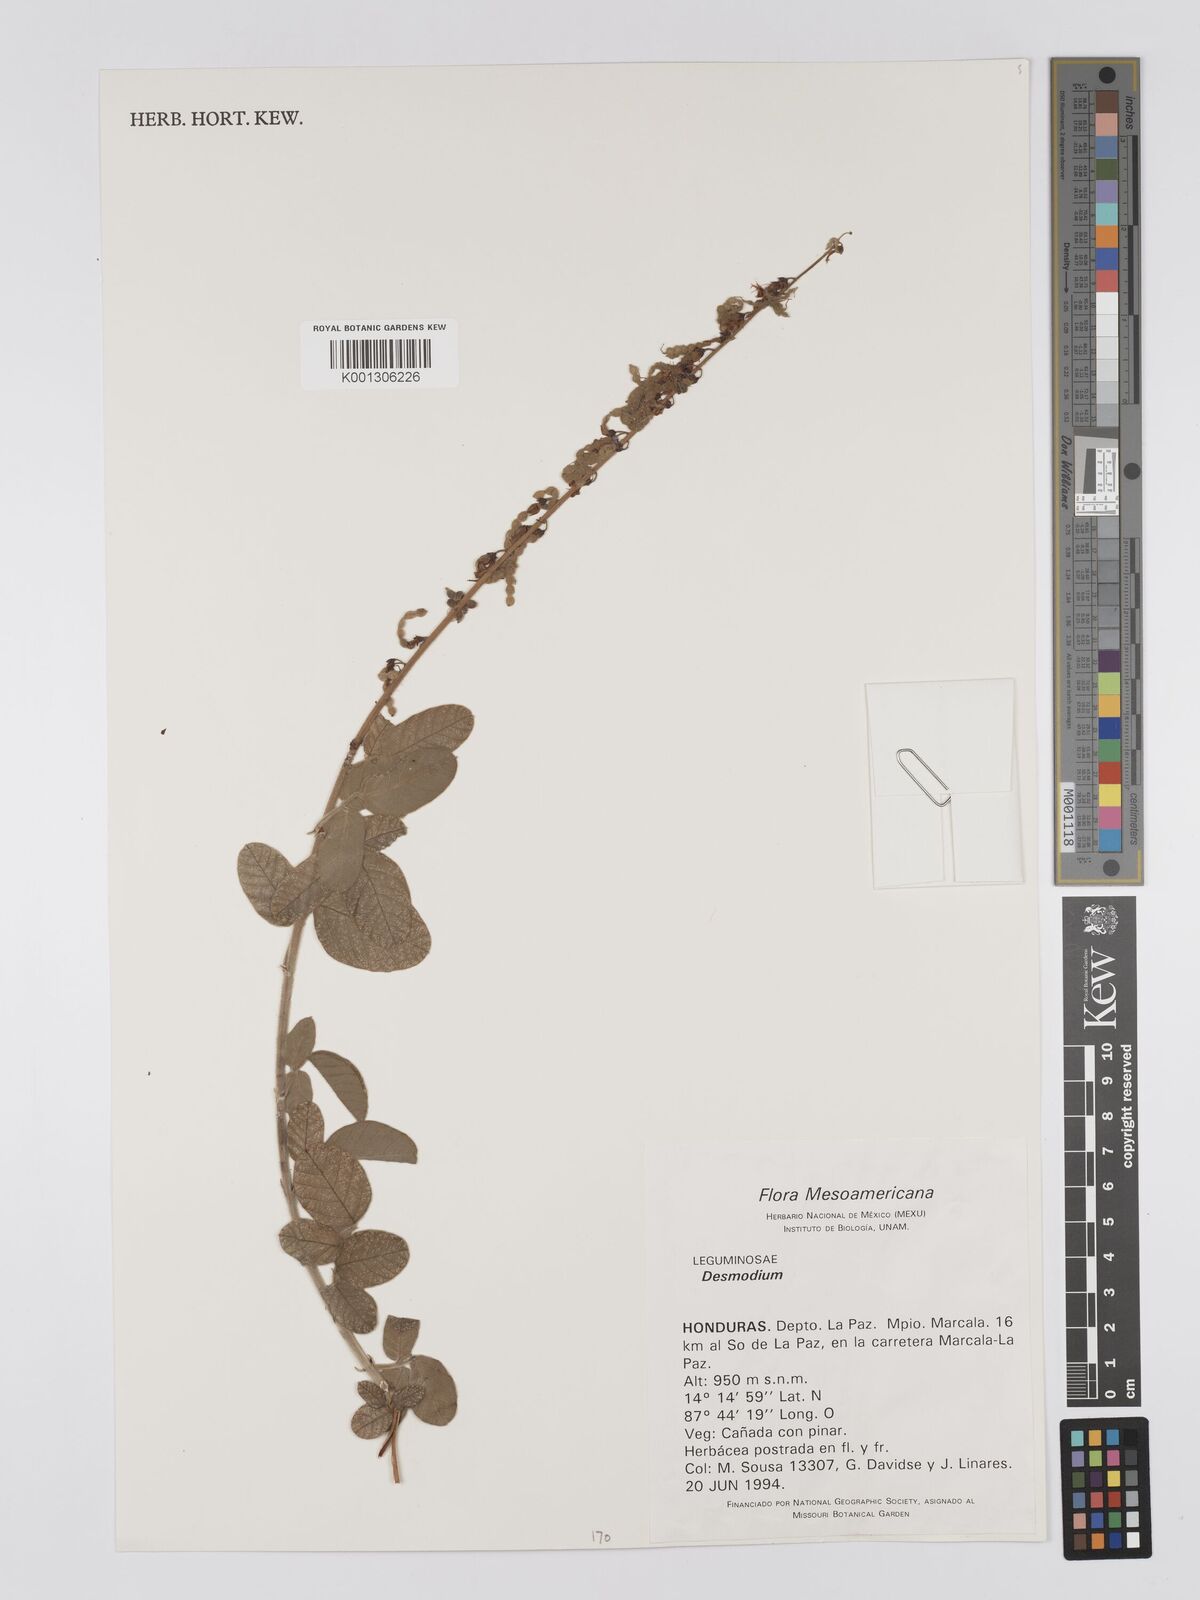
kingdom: Plantae
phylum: Tracheophyta
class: Magnoliopsida
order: Fabales
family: Fabaceae
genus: Desmodium
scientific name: Desmodium
